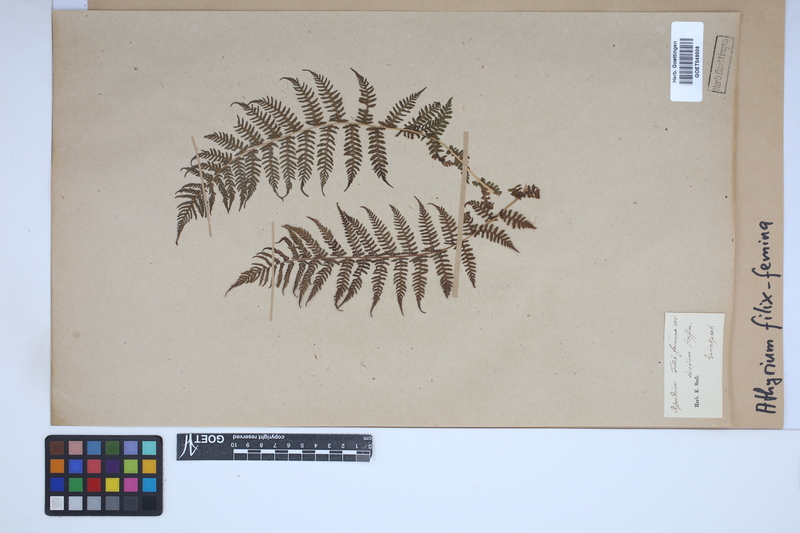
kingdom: Plantae
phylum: Tracheophyta
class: Polypodiopsida
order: Polypodiales
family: Athyriaceae
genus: Athyrium
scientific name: Athyrium filix-femina
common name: Lady fern
